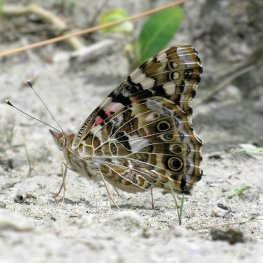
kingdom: Animalia
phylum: Arthropoda
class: Insecta
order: Lepidoptera
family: Nymphalidae
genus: Vanessa
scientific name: Vanessa cardui
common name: Painted Lady
